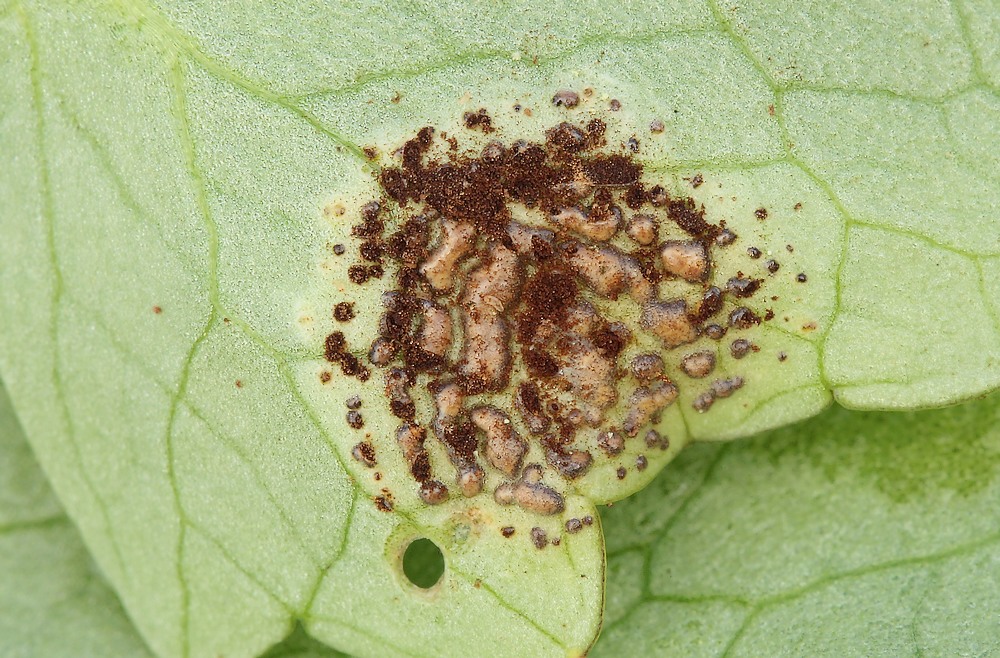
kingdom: Fungi
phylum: Basidiomycota
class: Pucciniomycetes
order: Pucciniales
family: Pucciniaceae
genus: Uromyces
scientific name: Uromyces ficariae
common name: vorterod-encellerust
